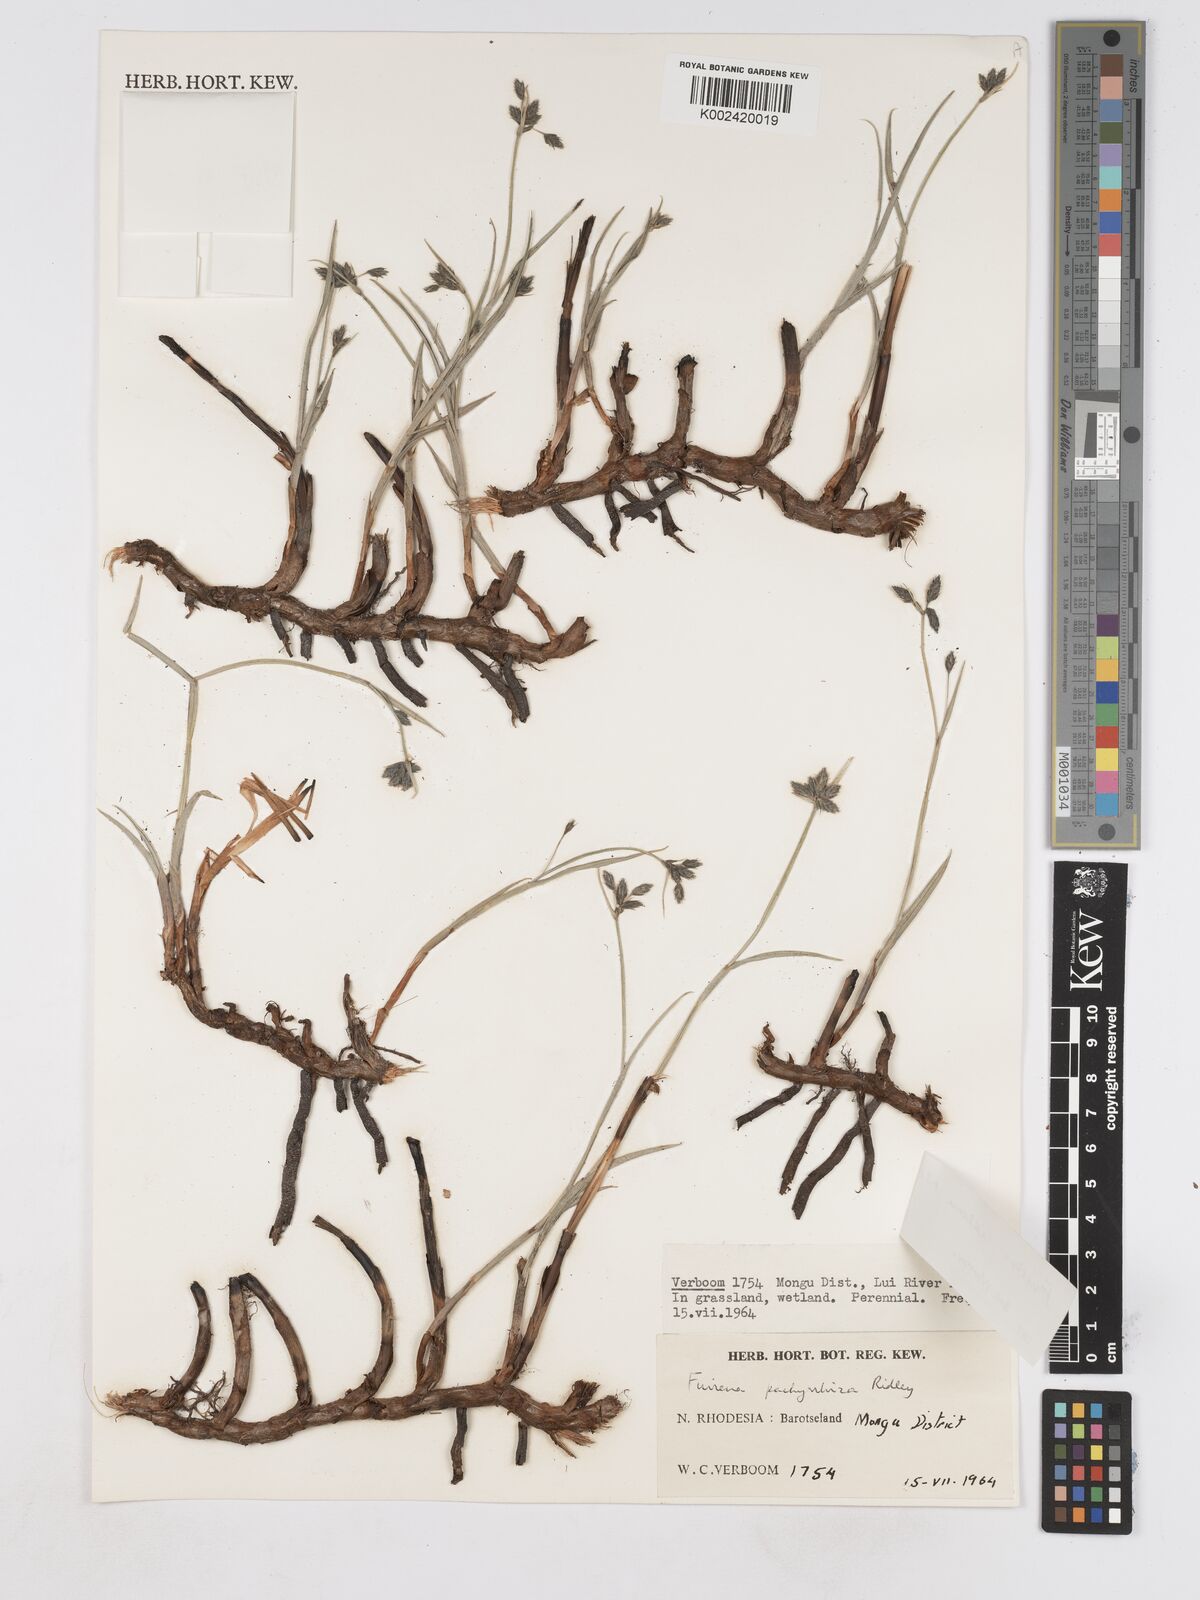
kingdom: Plantae
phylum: Tracheophyta
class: Liliopsida
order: Poales
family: Cyperaceae
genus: Fuirena
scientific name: Fuirena ecklonii
